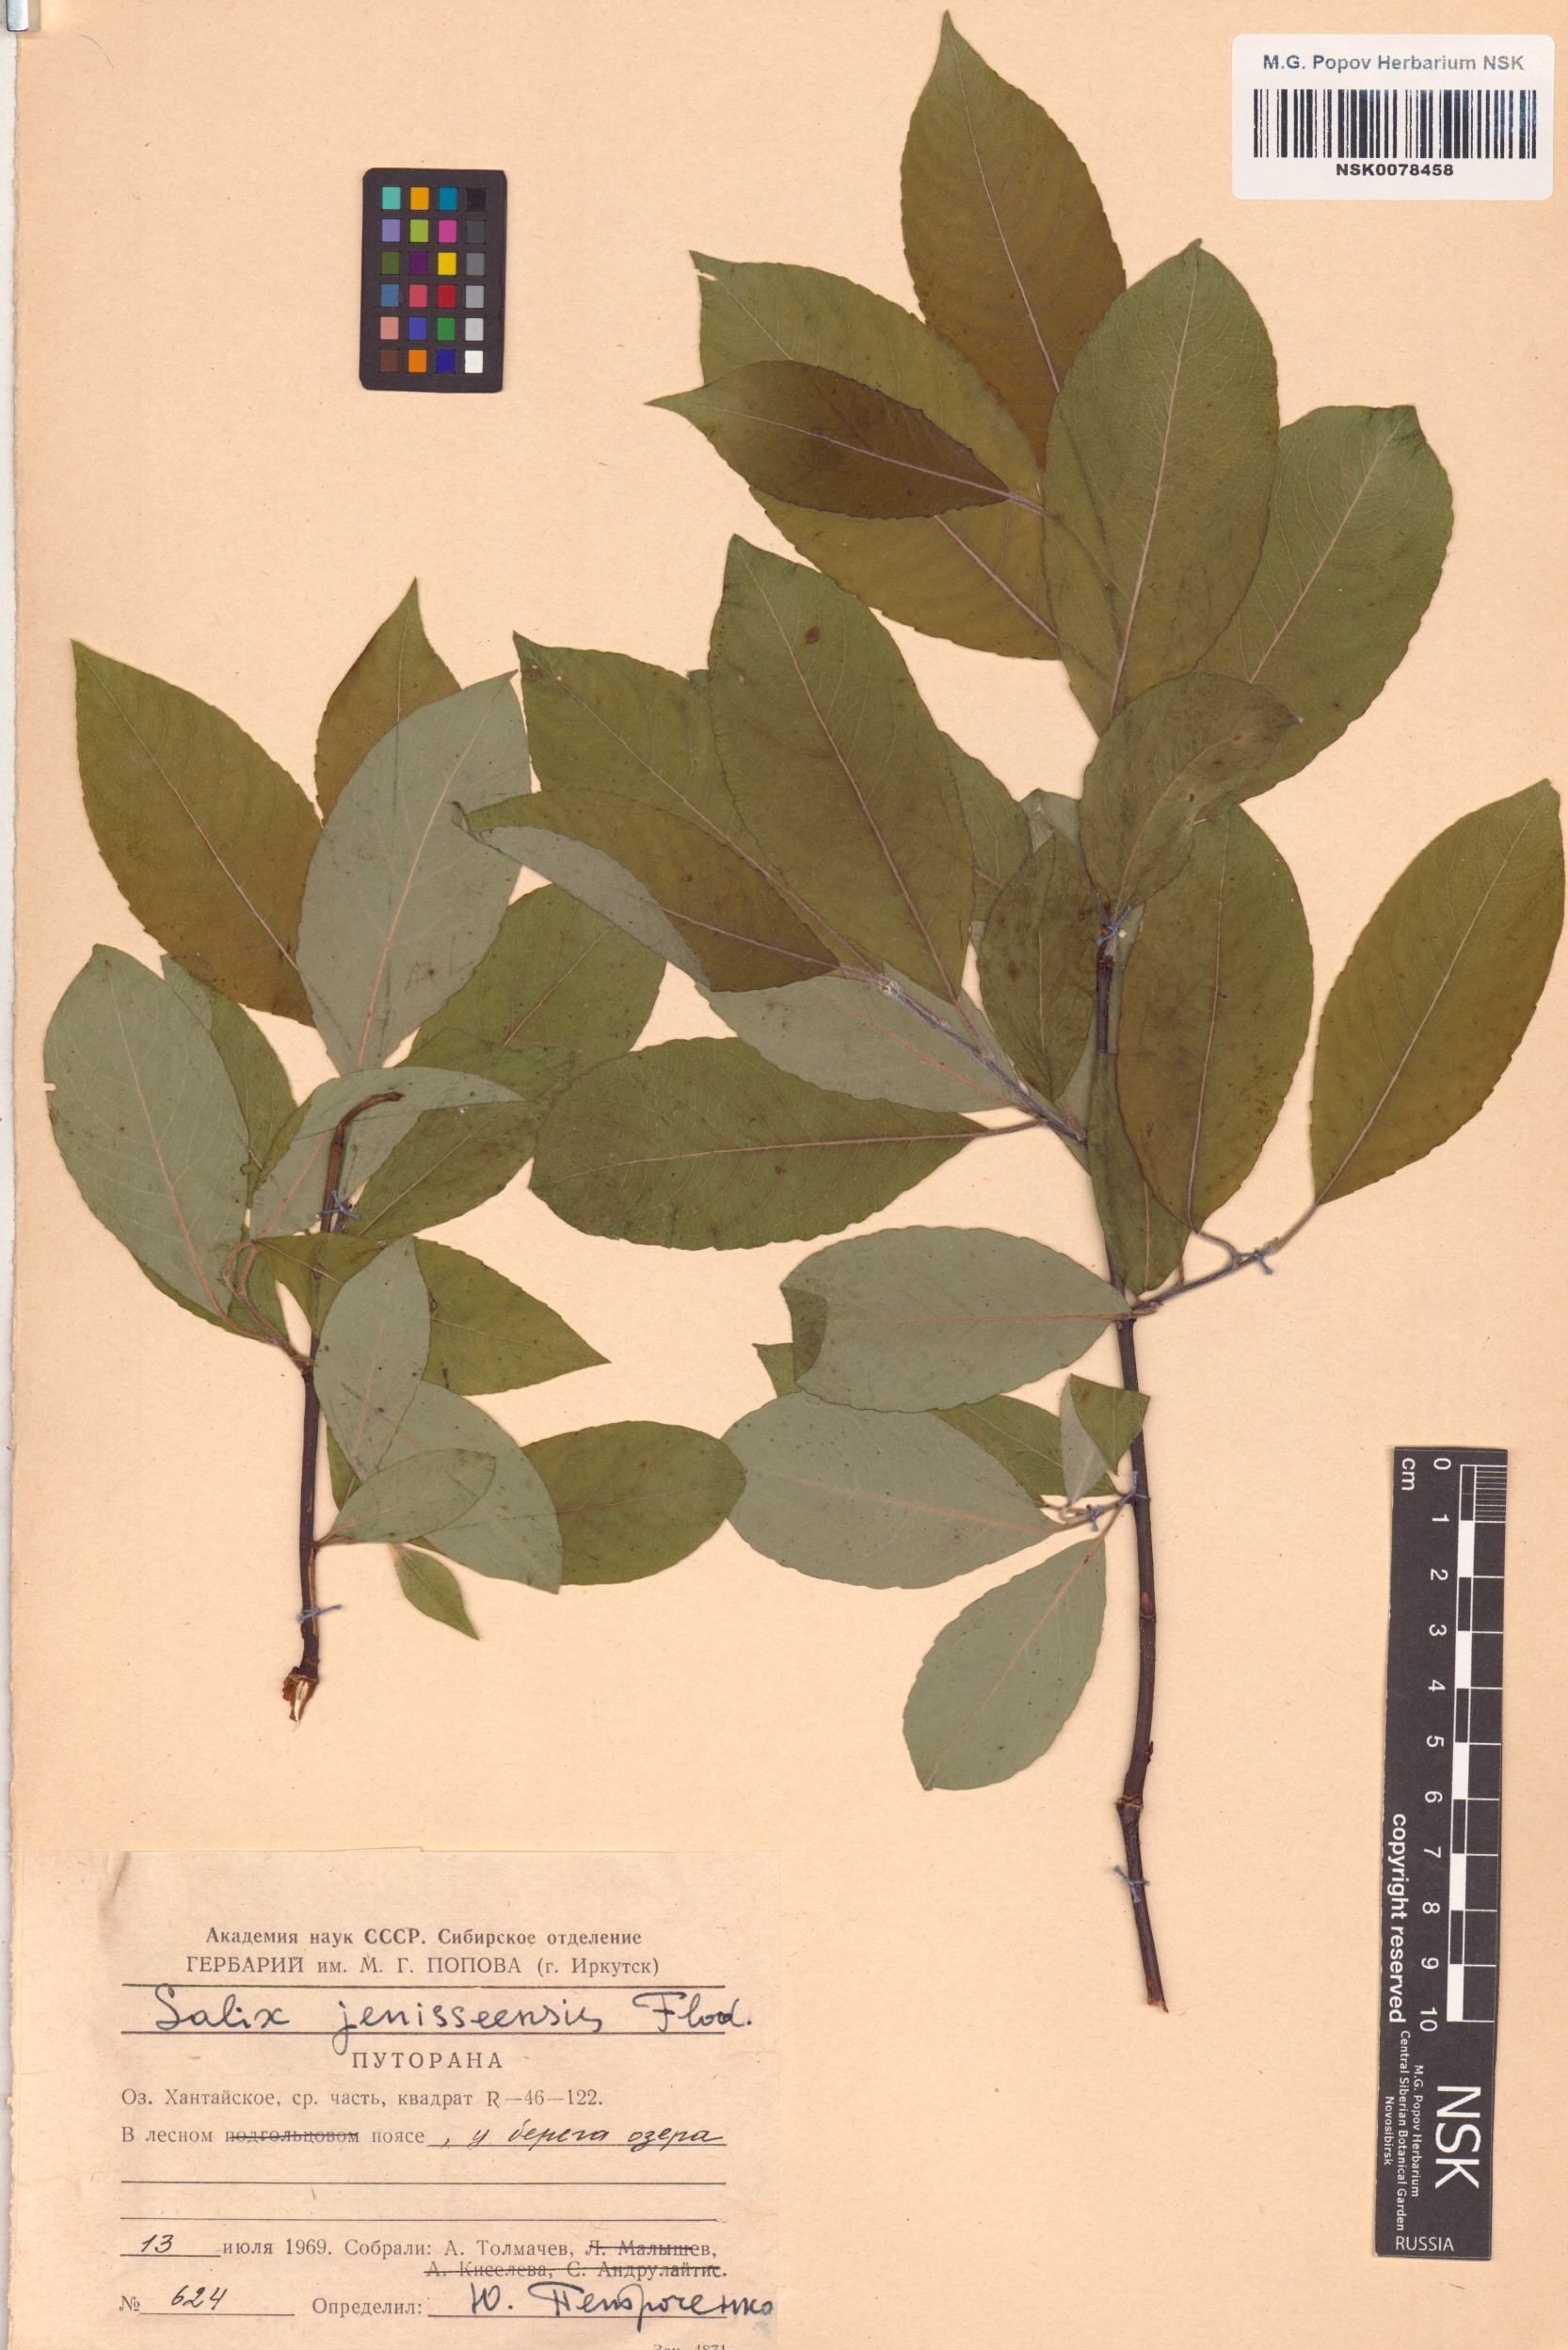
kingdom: Plantae
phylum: Tracheophyta
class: Magnoliopsida
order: Malpighiales
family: Salicaceae
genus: Salix
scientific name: Salix jenisseensis
